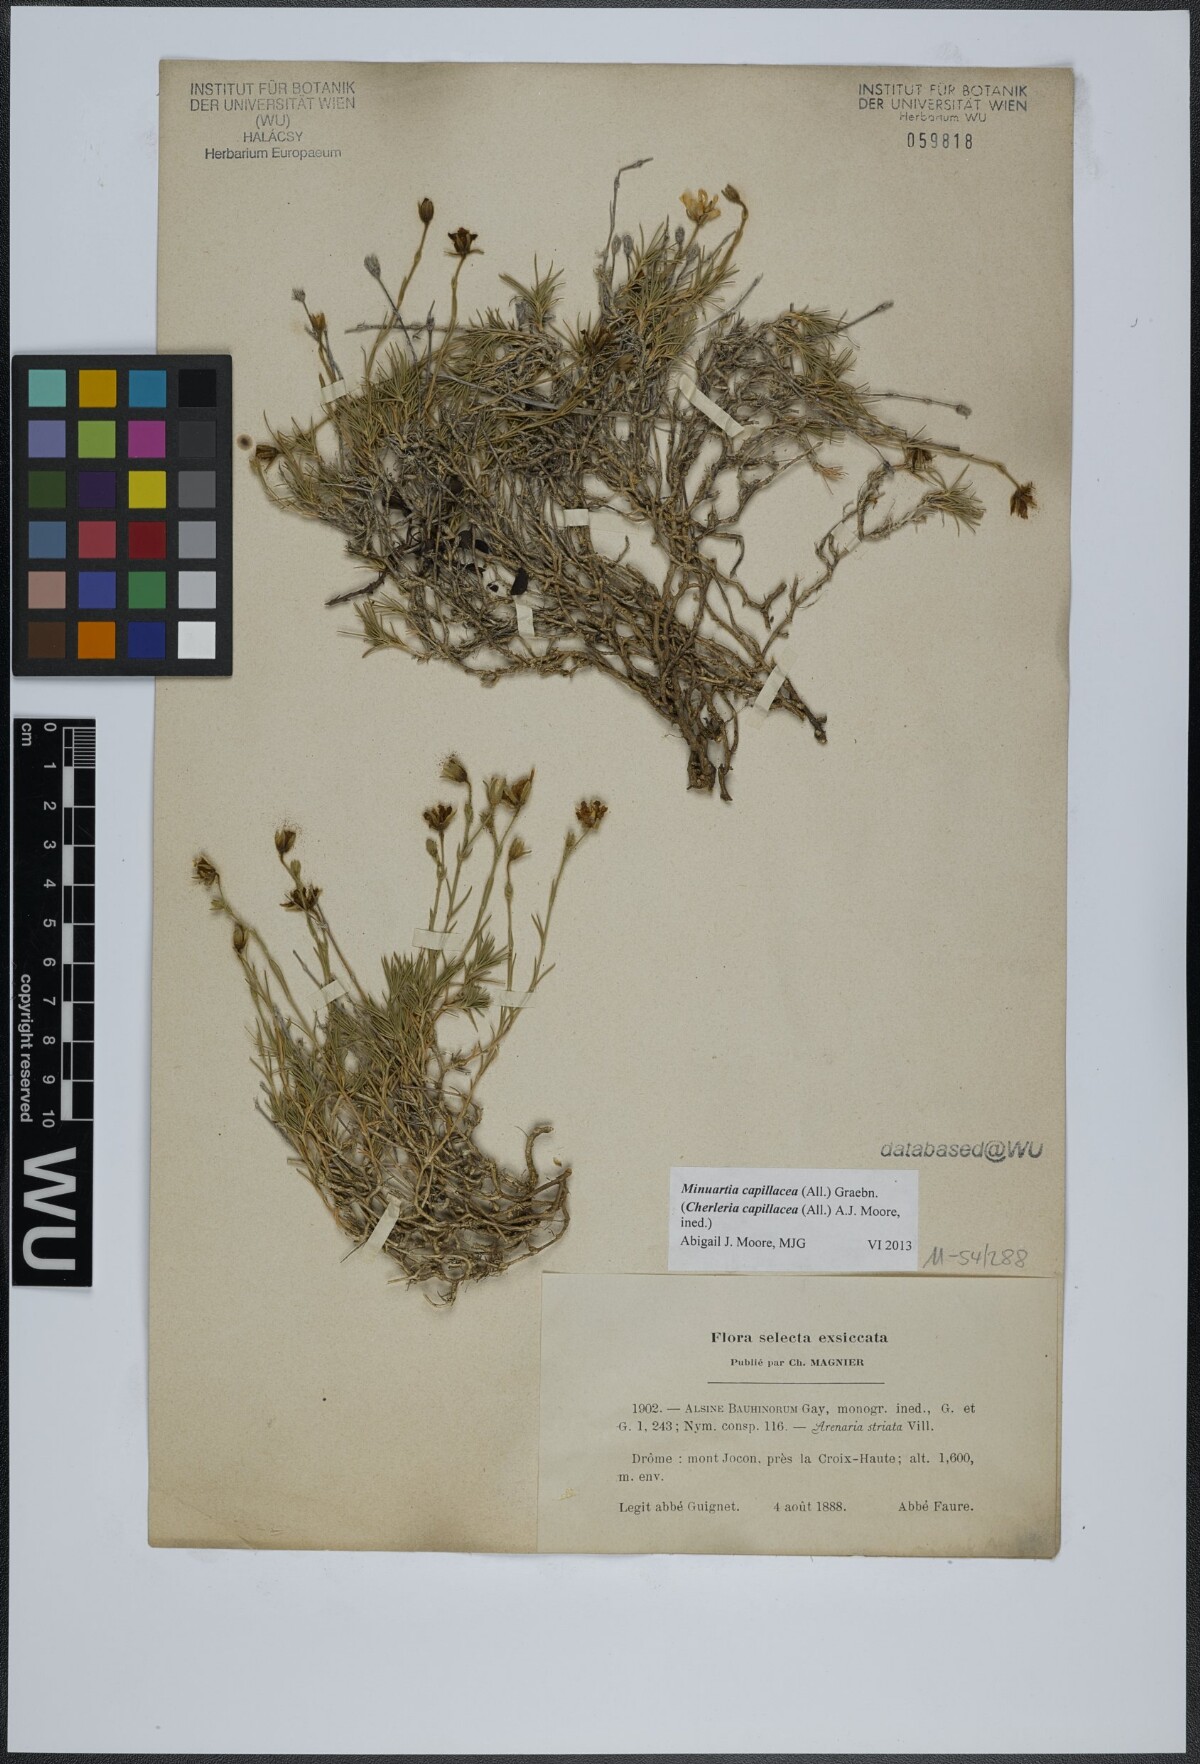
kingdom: Plantae
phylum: Tracheophyta
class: Magnoliopsida
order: Caryophyllales
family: Caryophyllaceae
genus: Cherleria
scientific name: Cherleria capillacea
